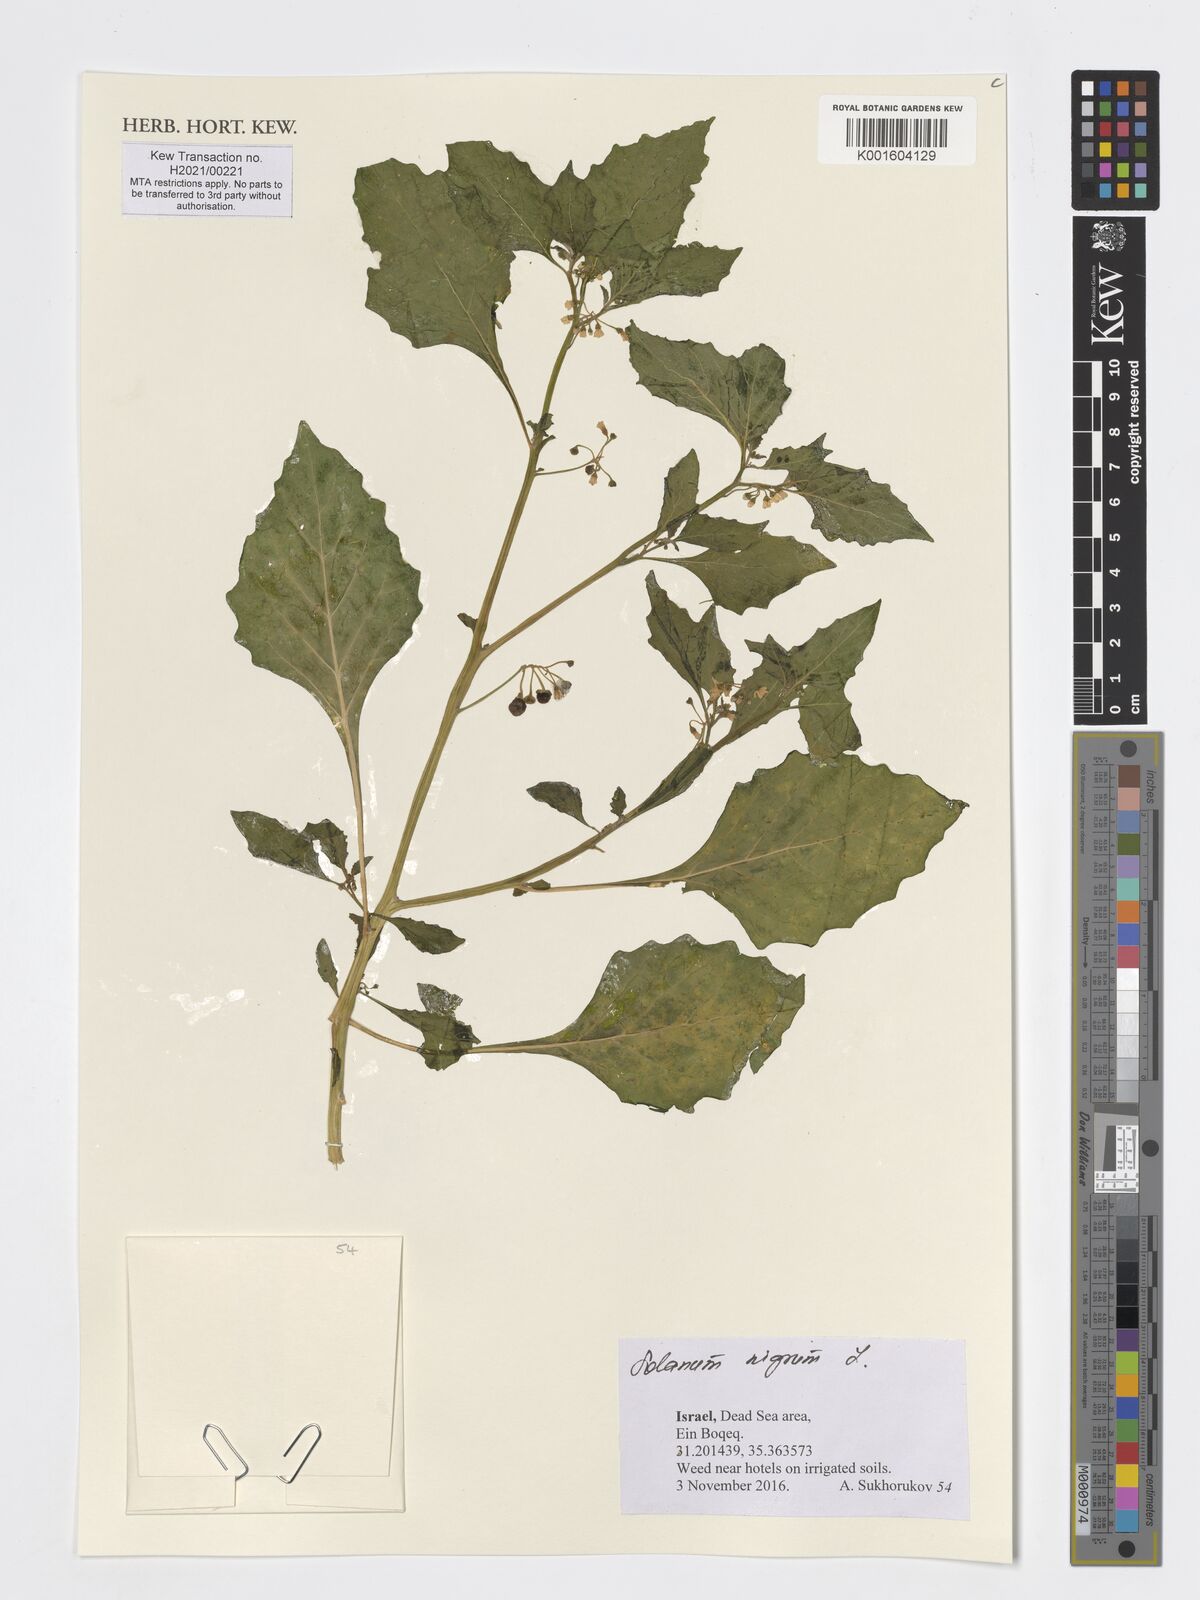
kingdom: Plantae
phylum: Tracheophyta
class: Magnoliopsida
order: Solanales
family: Solanaceae
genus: Solanum
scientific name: Solanum nigrum
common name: Black nightshade
